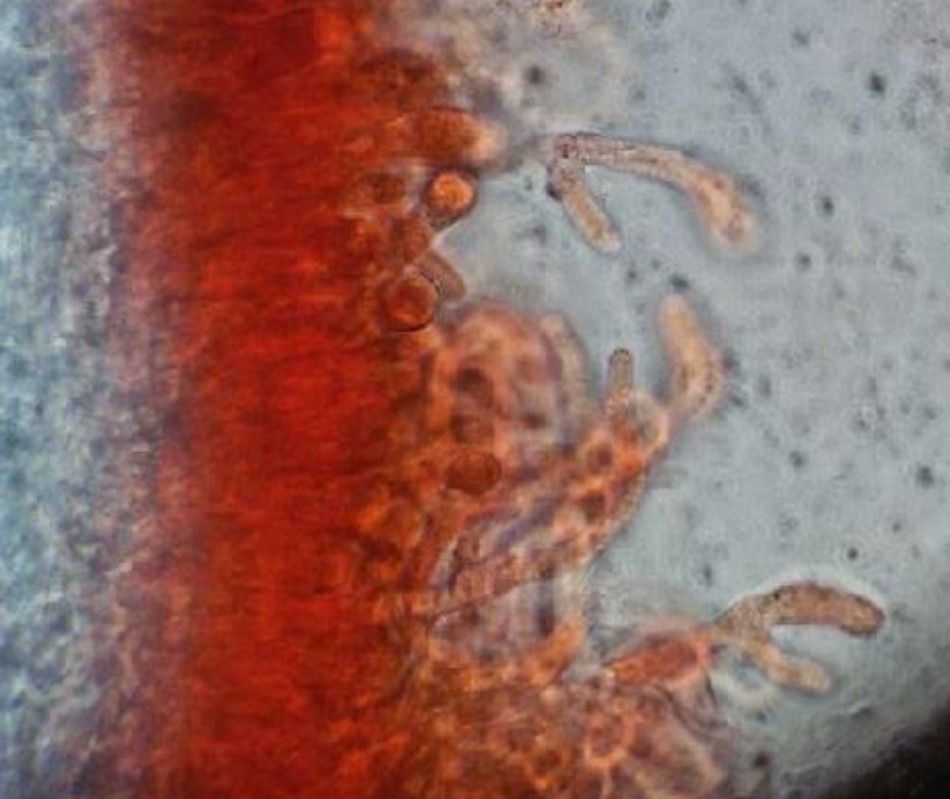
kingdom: Fungi
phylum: Basidiomycota
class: Agaricomycetes
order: Gomphales
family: Lentariaceae
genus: Hydnocristella
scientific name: Hydnocristella himantia
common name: brunlig koralpig
